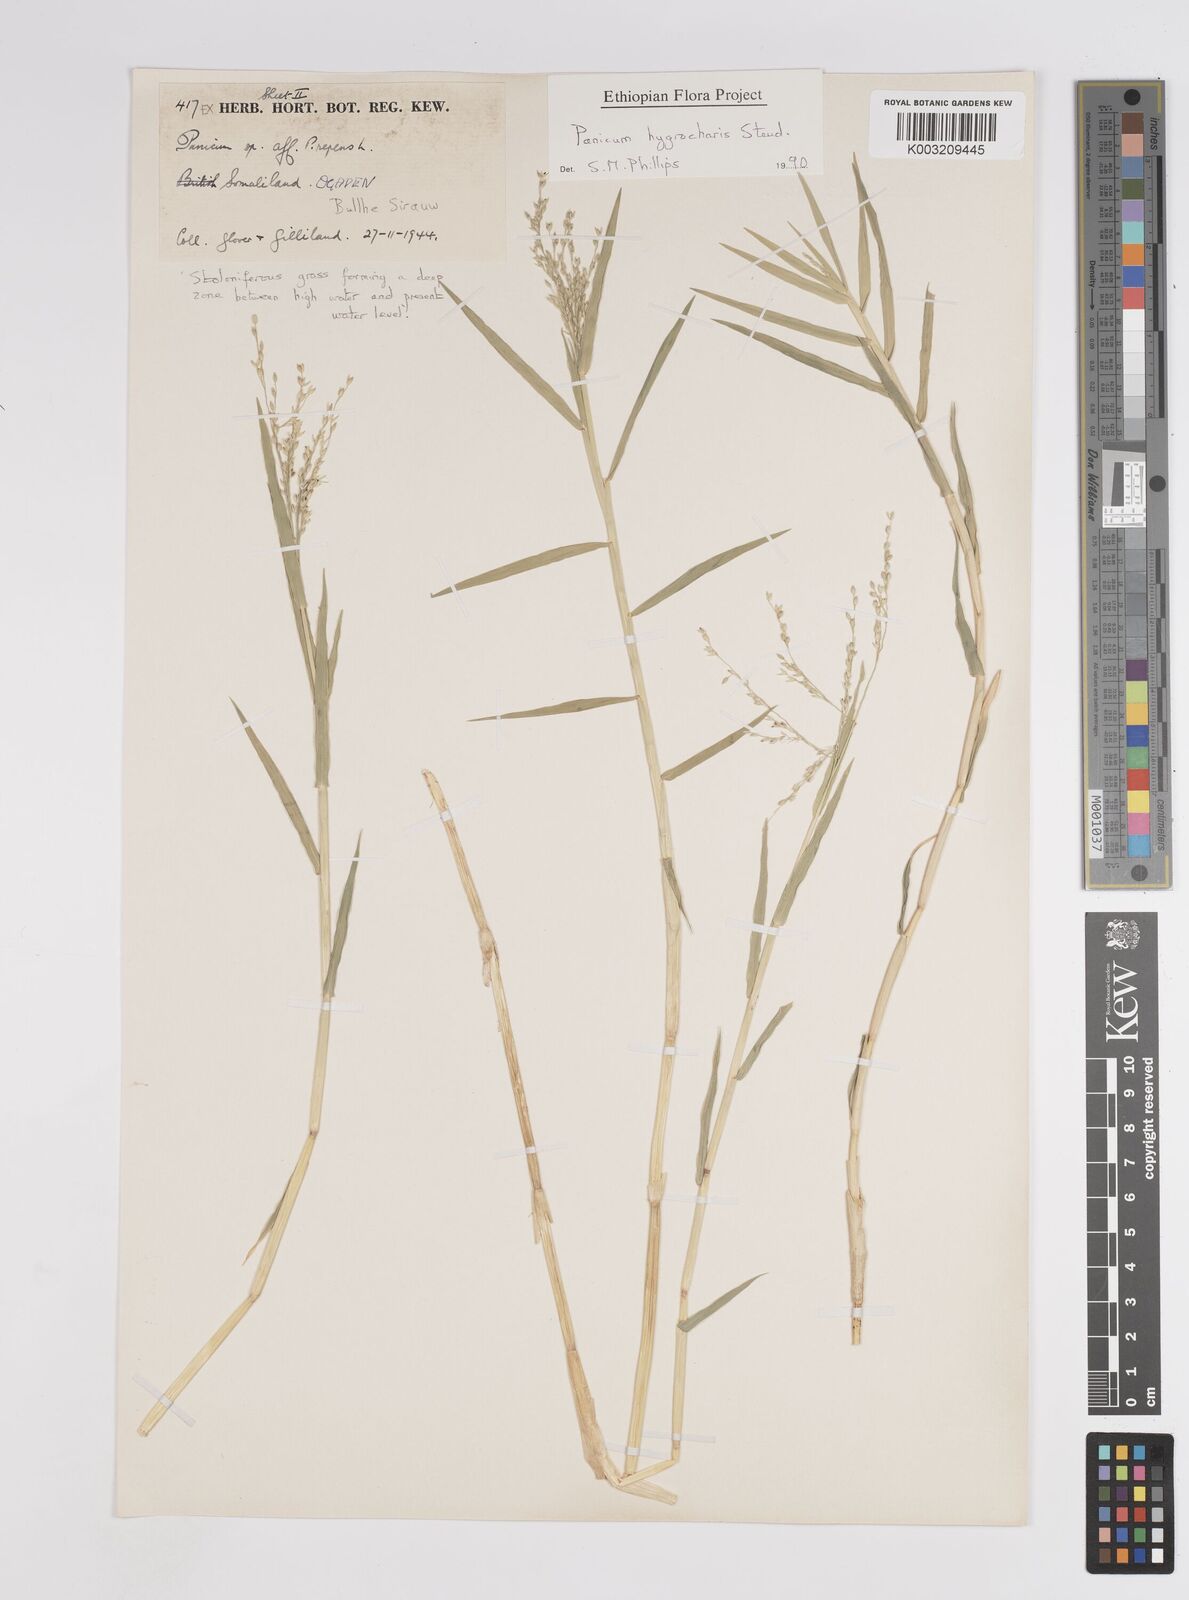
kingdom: Plantae
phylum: Tracheophyta
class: Liliopsida
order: Poales
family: Poaceae
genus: Panicum
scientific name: Panicum hygrocharis
